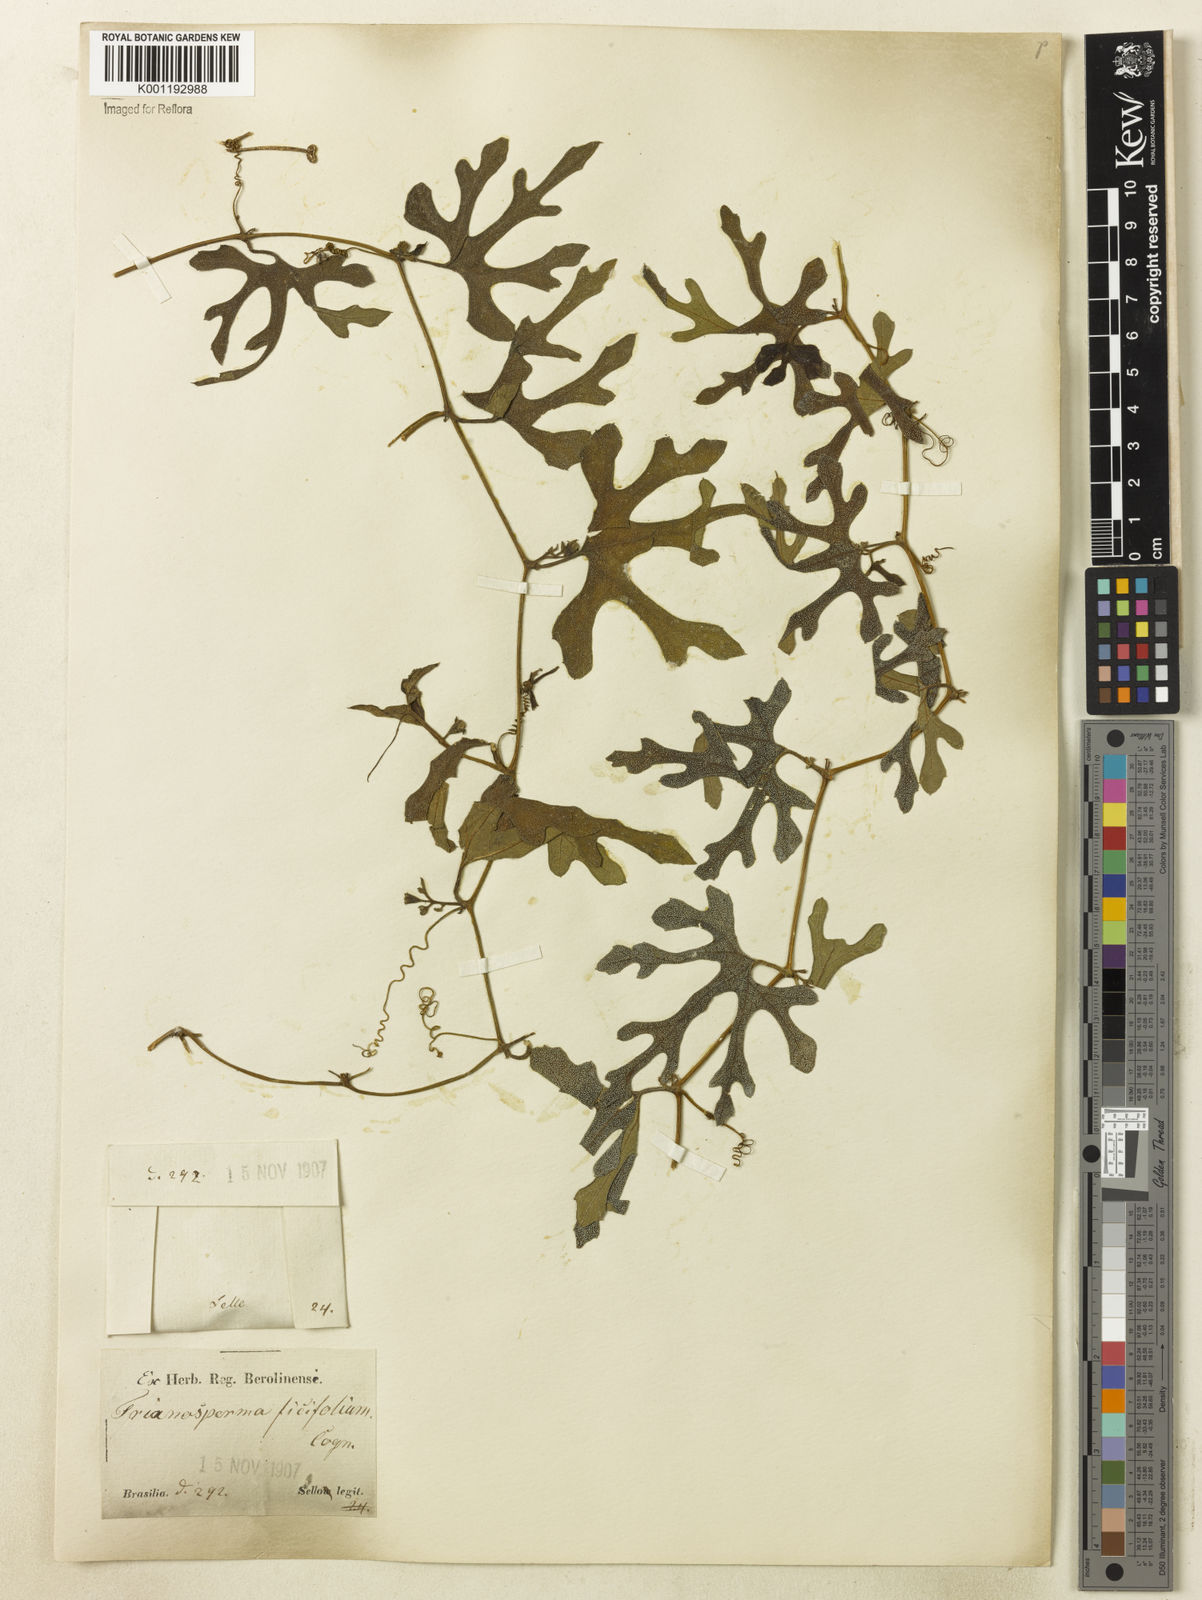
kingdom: Plantae
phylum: Tracheophyta
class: Magnoliopsida
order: Cucurbitales
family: Cucurbitaceae
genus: Cayaponia
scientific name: Cayaponia bonariensis
